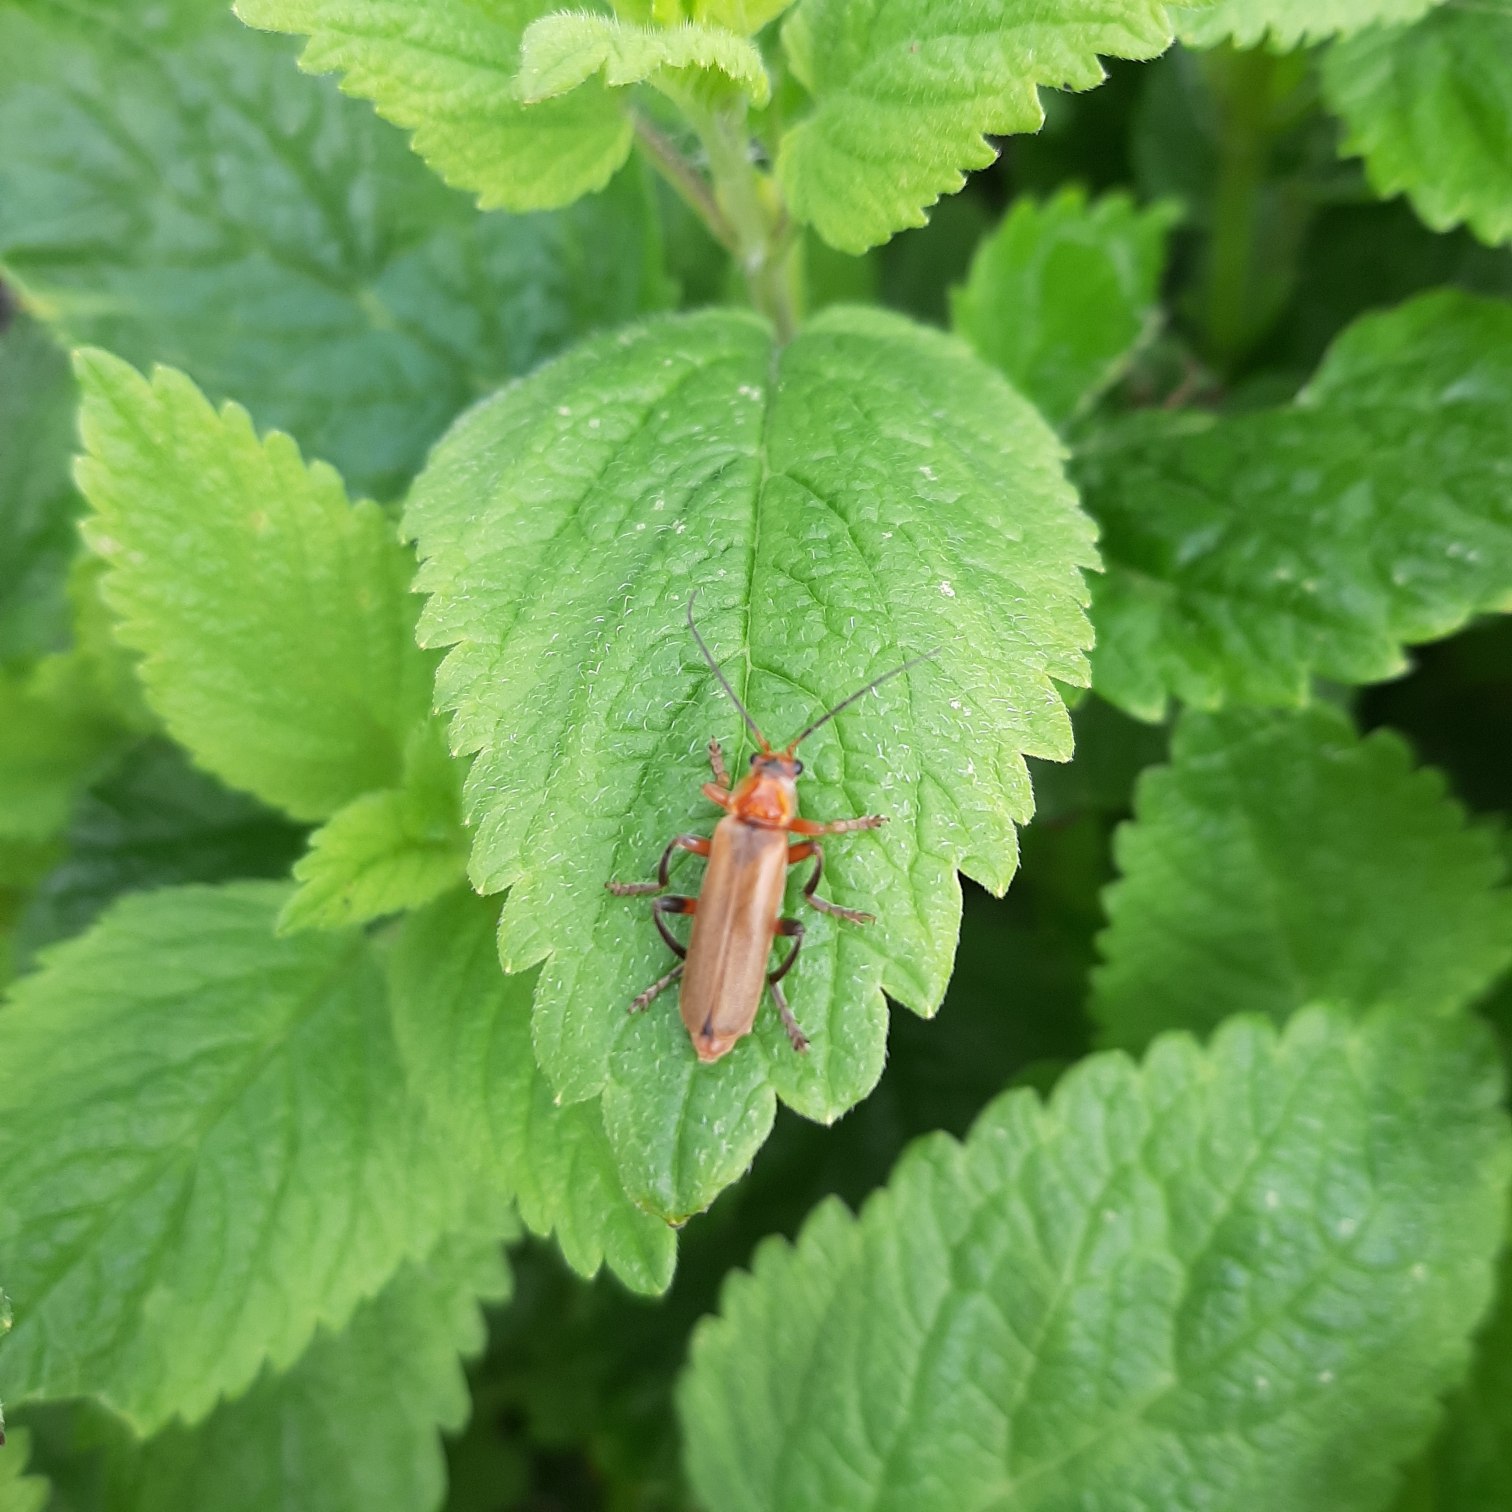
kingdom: Animalia
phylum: Arthropoda
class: Insecta
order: Coleoptera
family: Cantharidae
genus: Cantharis
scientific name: Cantharis livida
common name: Gul blødvinge
